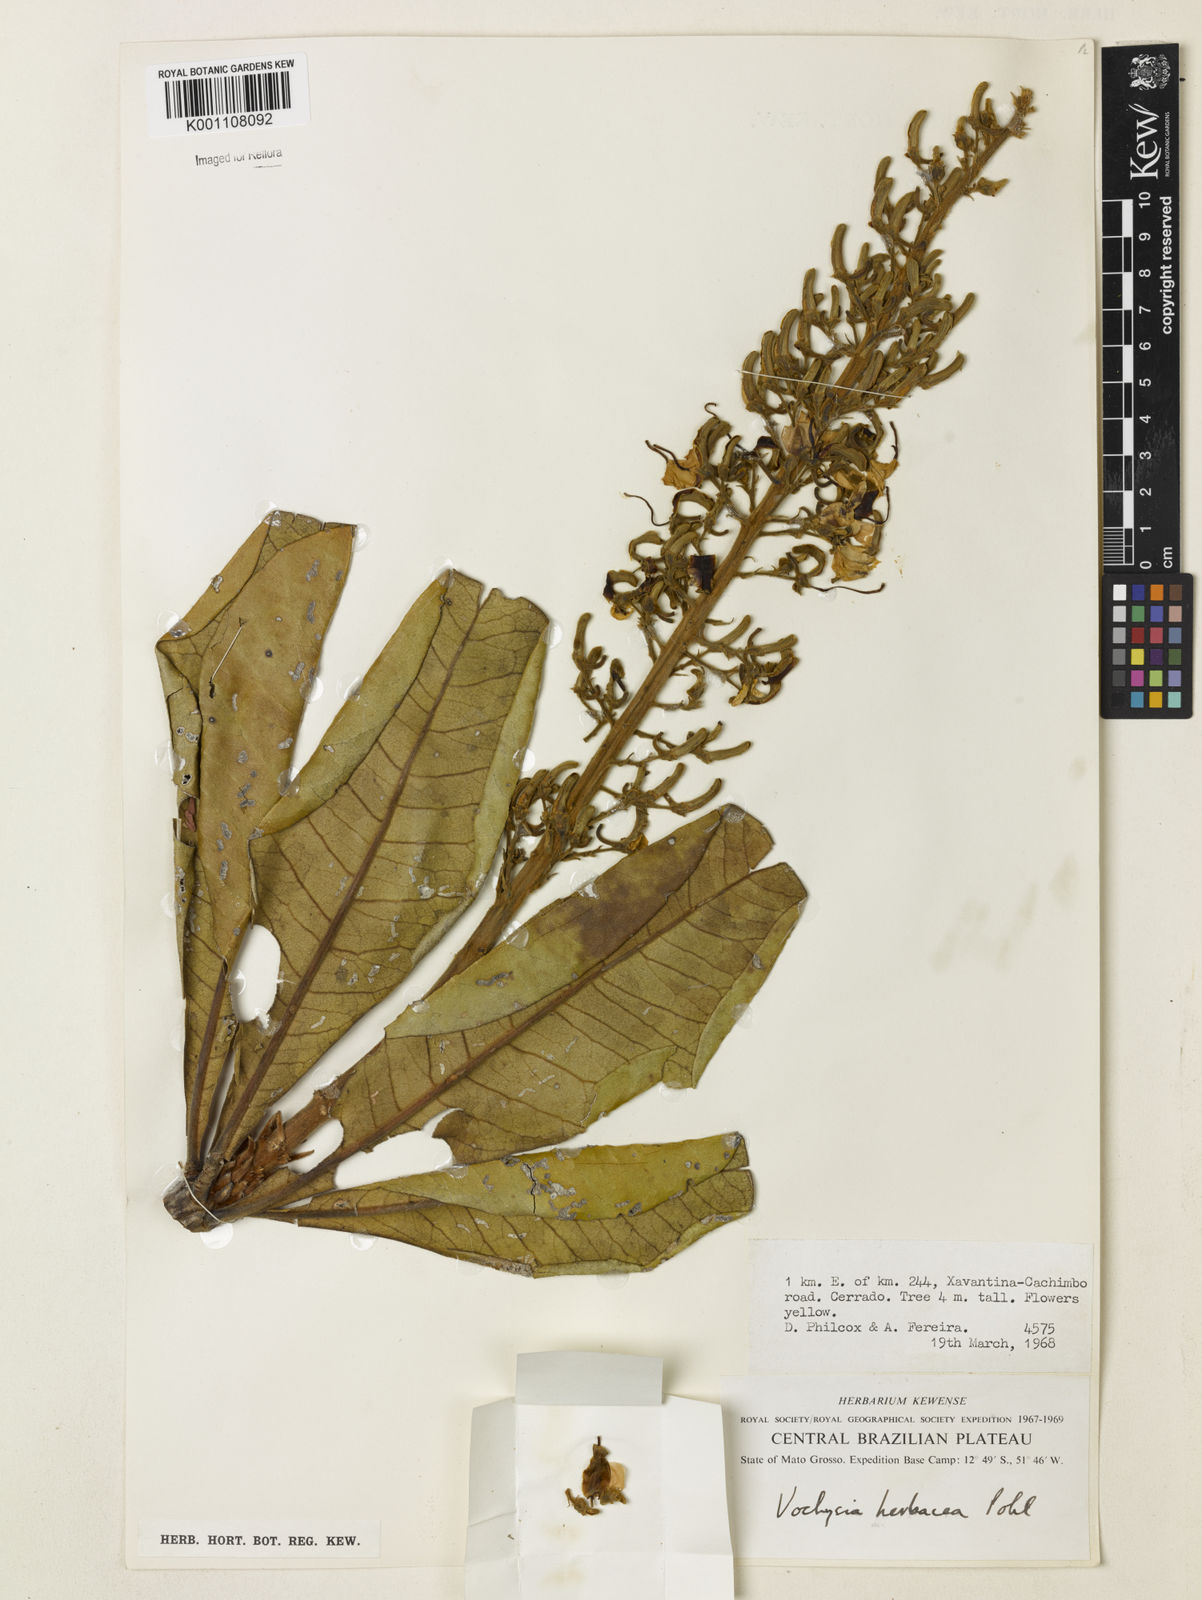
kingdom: Plantae
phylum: Tracheophyta
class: Magnoliopsida
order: Myrtales
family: Vochysiaceae
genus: Vochysia
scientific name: Vochysia herbacea
